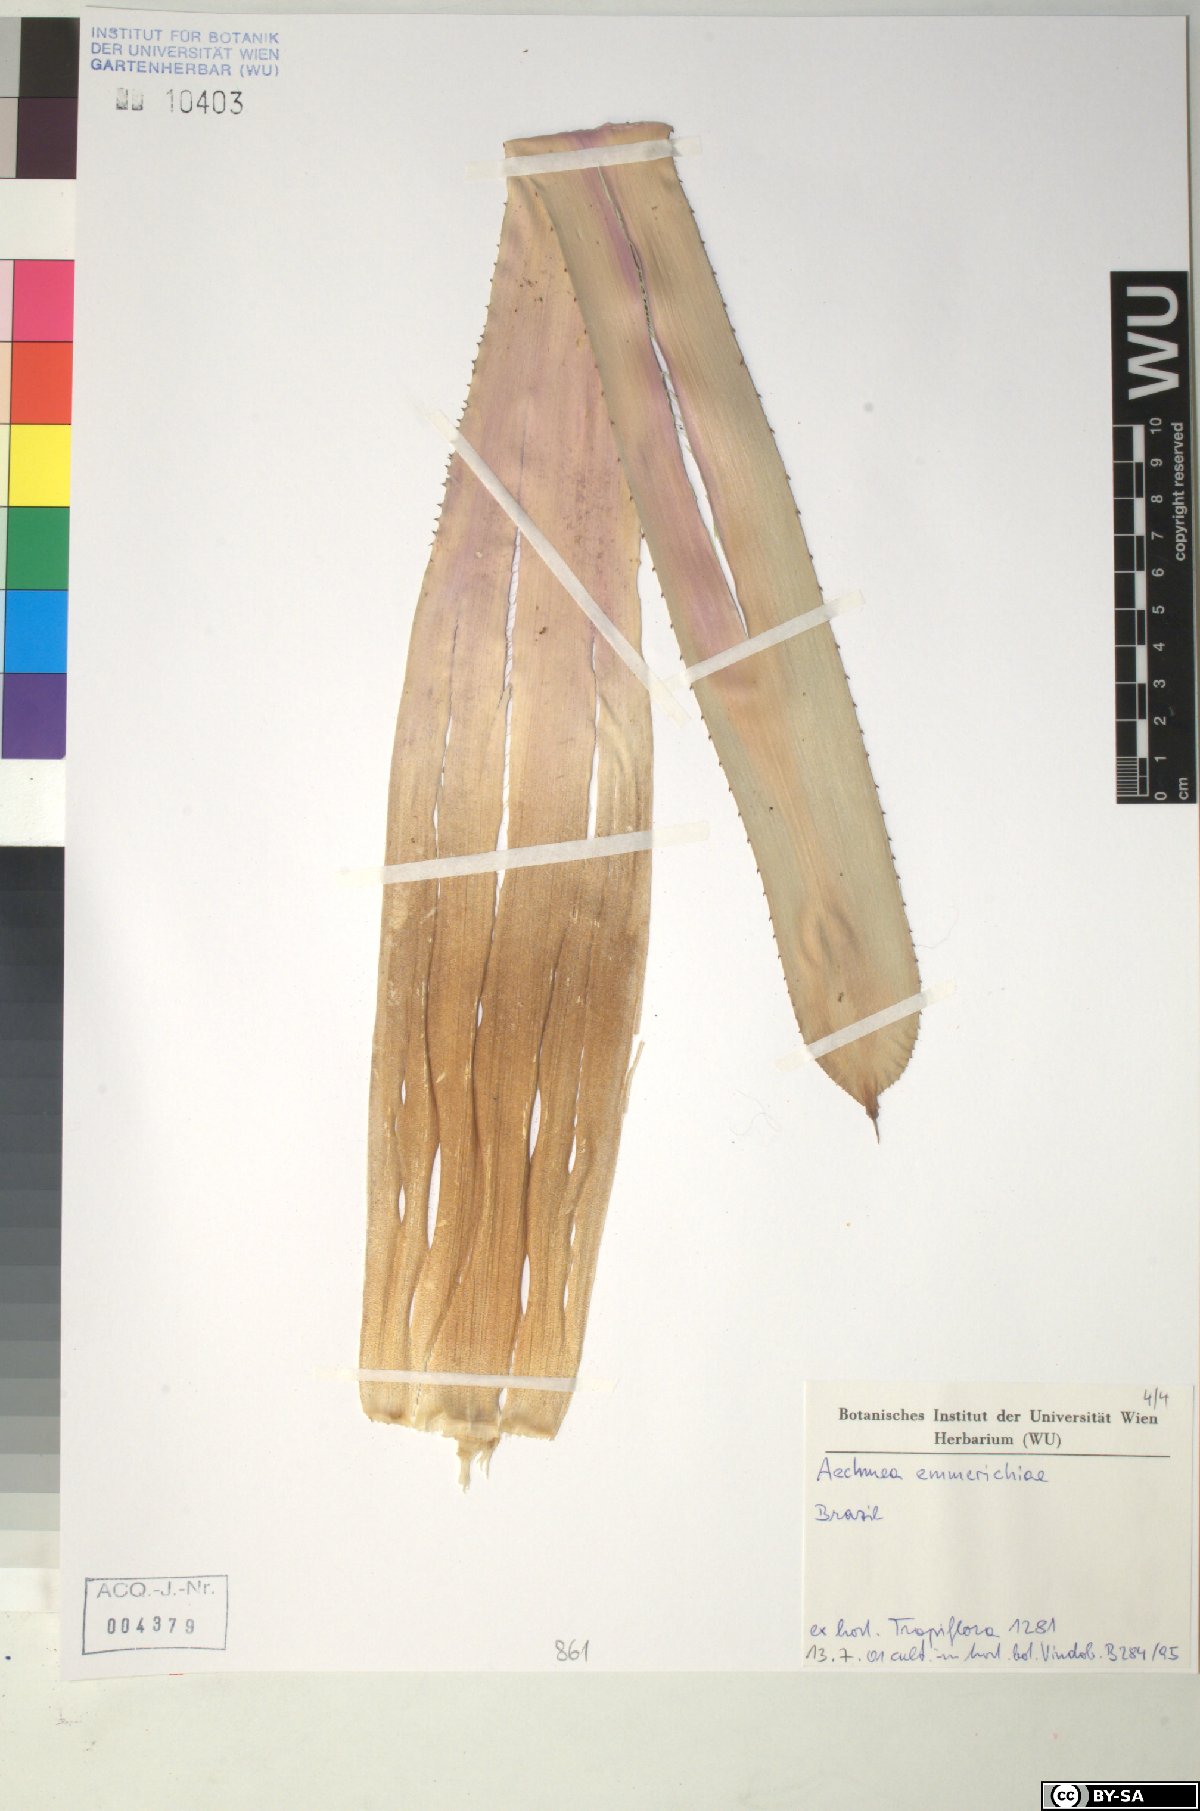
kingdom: Plantae
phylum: Tracheophyta
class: Liliopsida
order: Poales
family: Bromeliaceae
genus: Aechmea
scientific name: Aechmea emmerichiae
